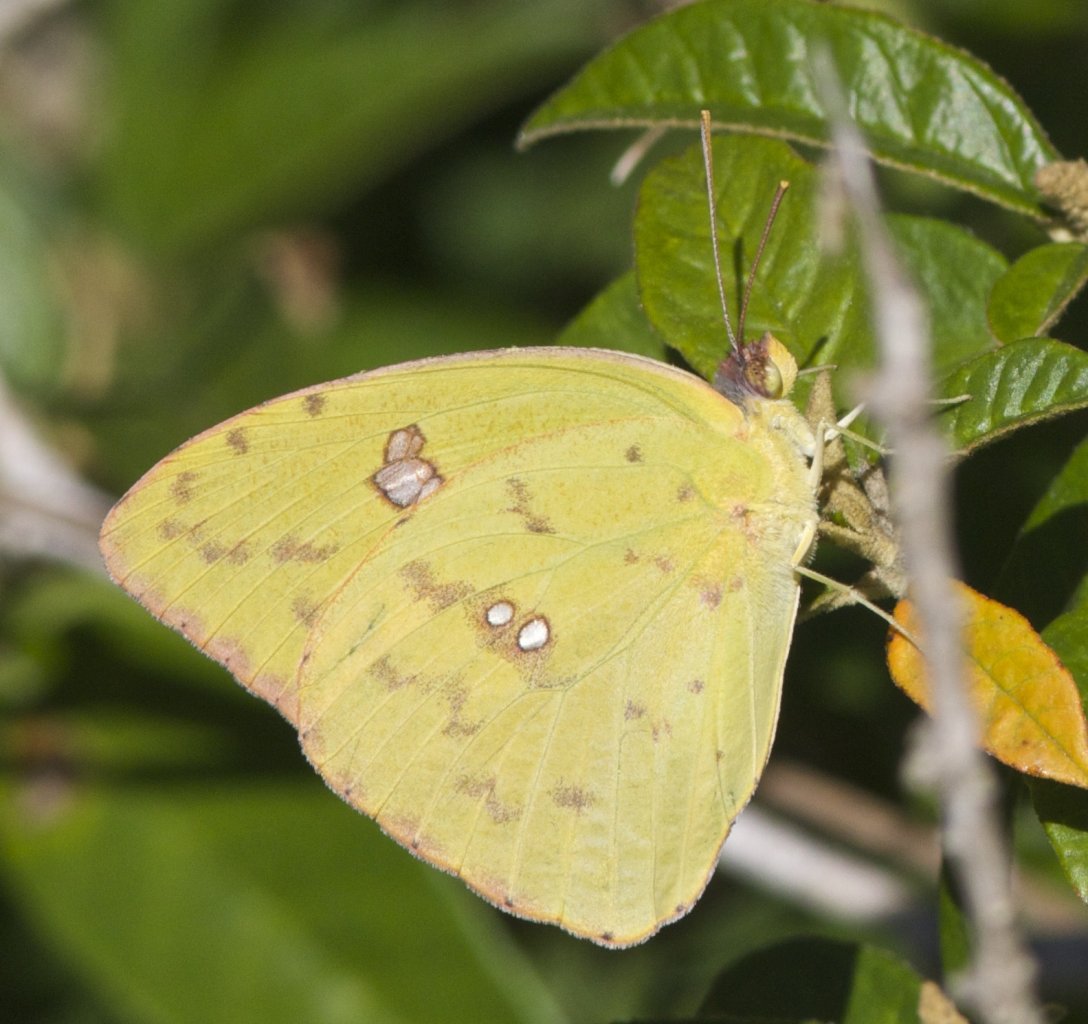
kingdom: Animalia
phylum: Arthropoda
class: Insecta
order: Lepidoptera
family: Pieridae
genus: Phoebis
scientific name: Phoebis sennae
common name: Cloudless Sulphur
